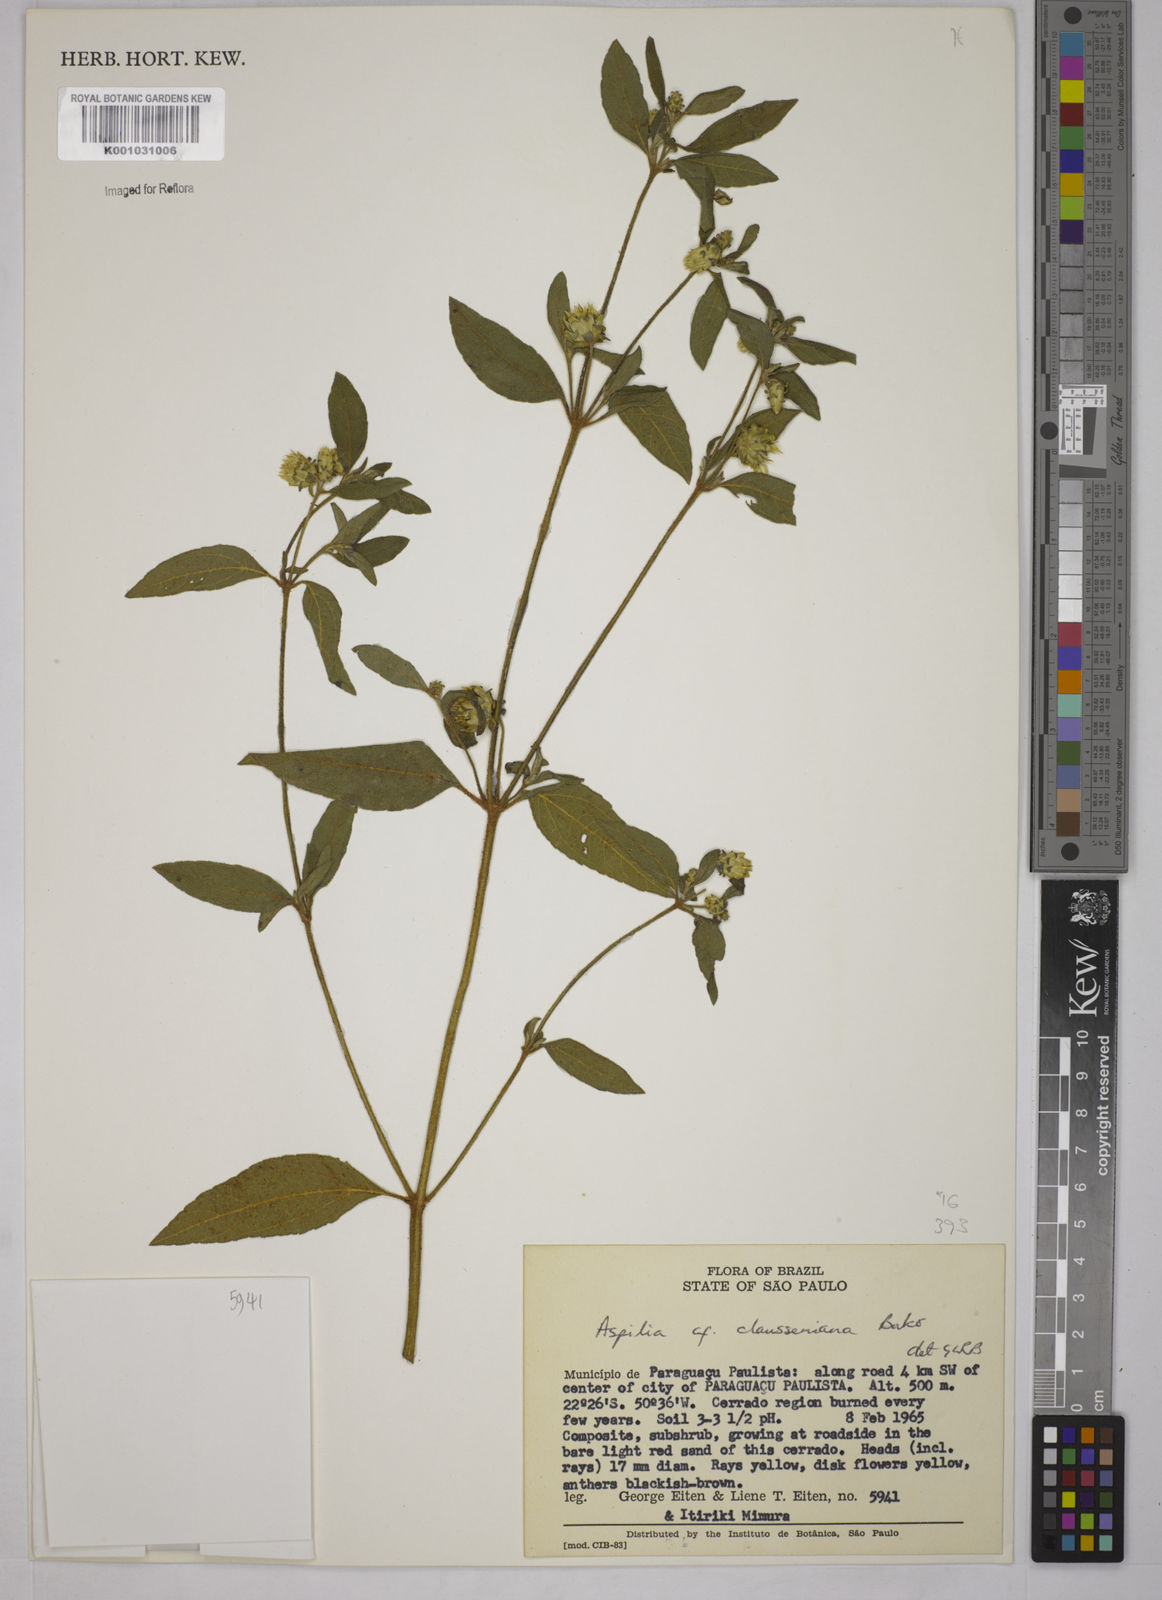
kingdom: Plantae
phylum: Tracheophyta
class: Magnoliopsida
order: Asterales
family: Asteraceae
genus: Aspilia
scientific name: Aspilia clausseniana
